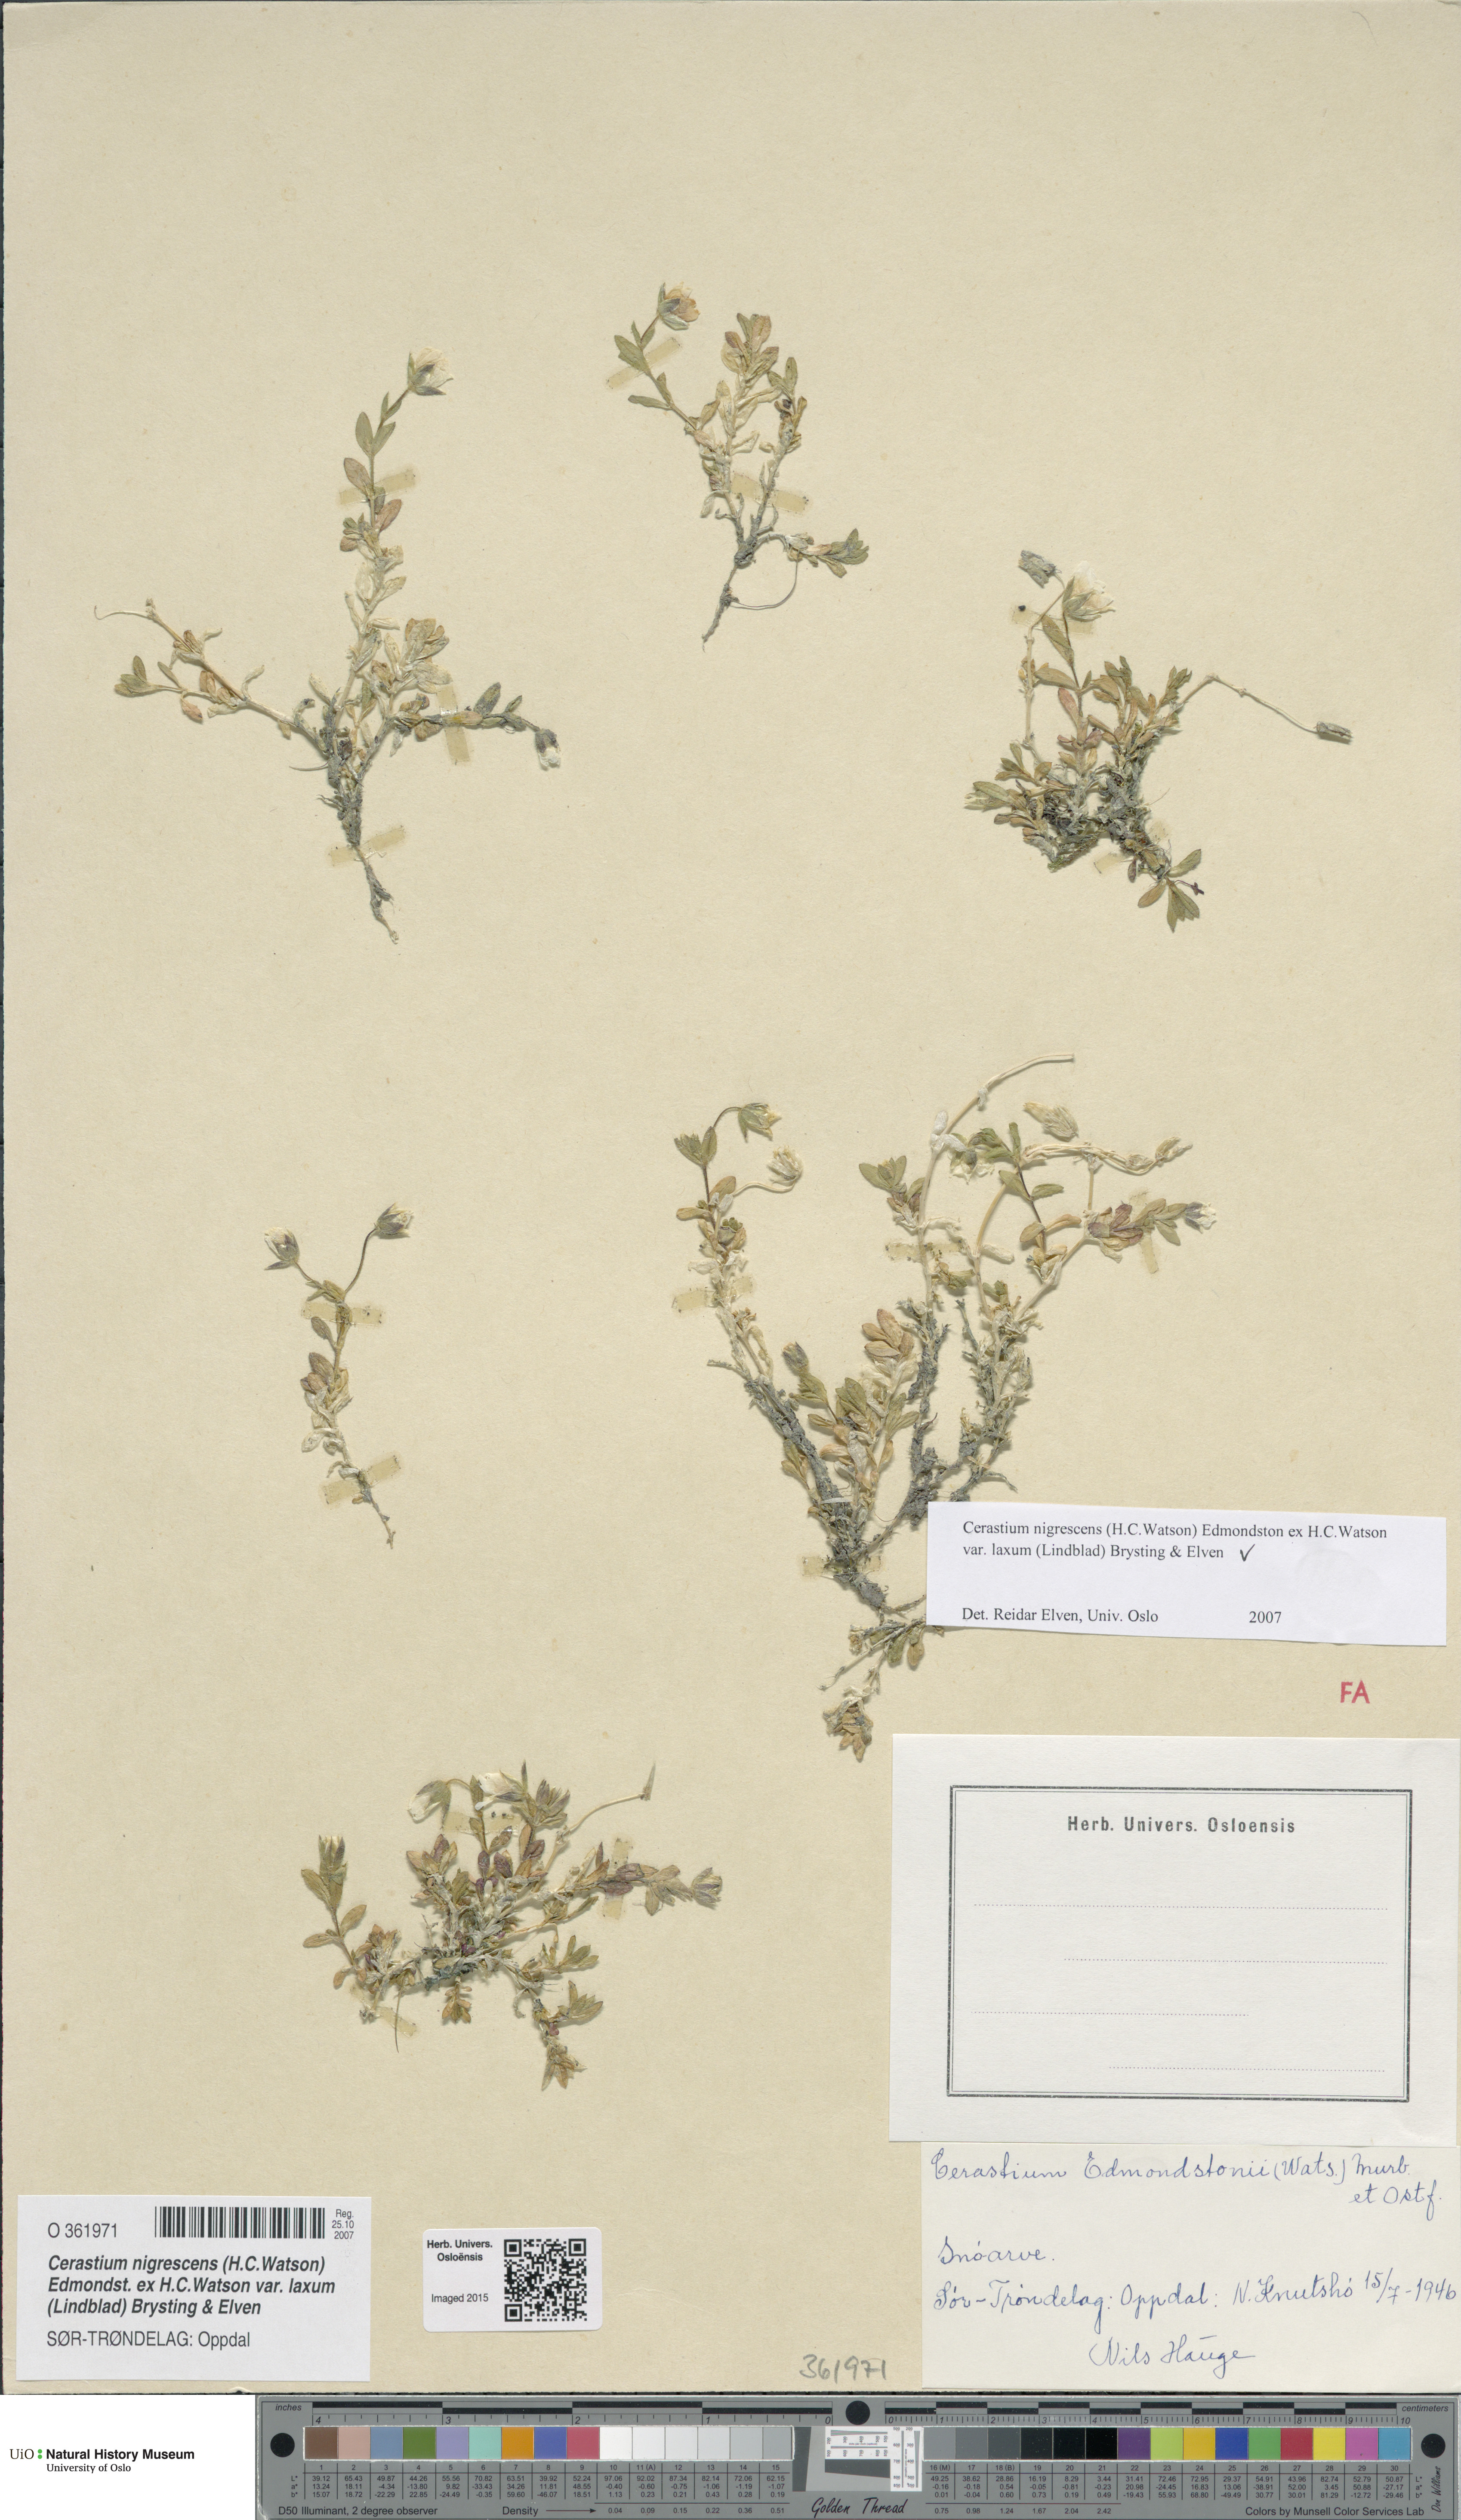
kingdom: Plantae
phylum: Tracheophyta
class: Magnoliopsida
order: Caryophyllales
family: Caryophyllaceae
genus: Cerastium
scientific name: Cerastium nigrescens
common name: Shetland mouse-ear
